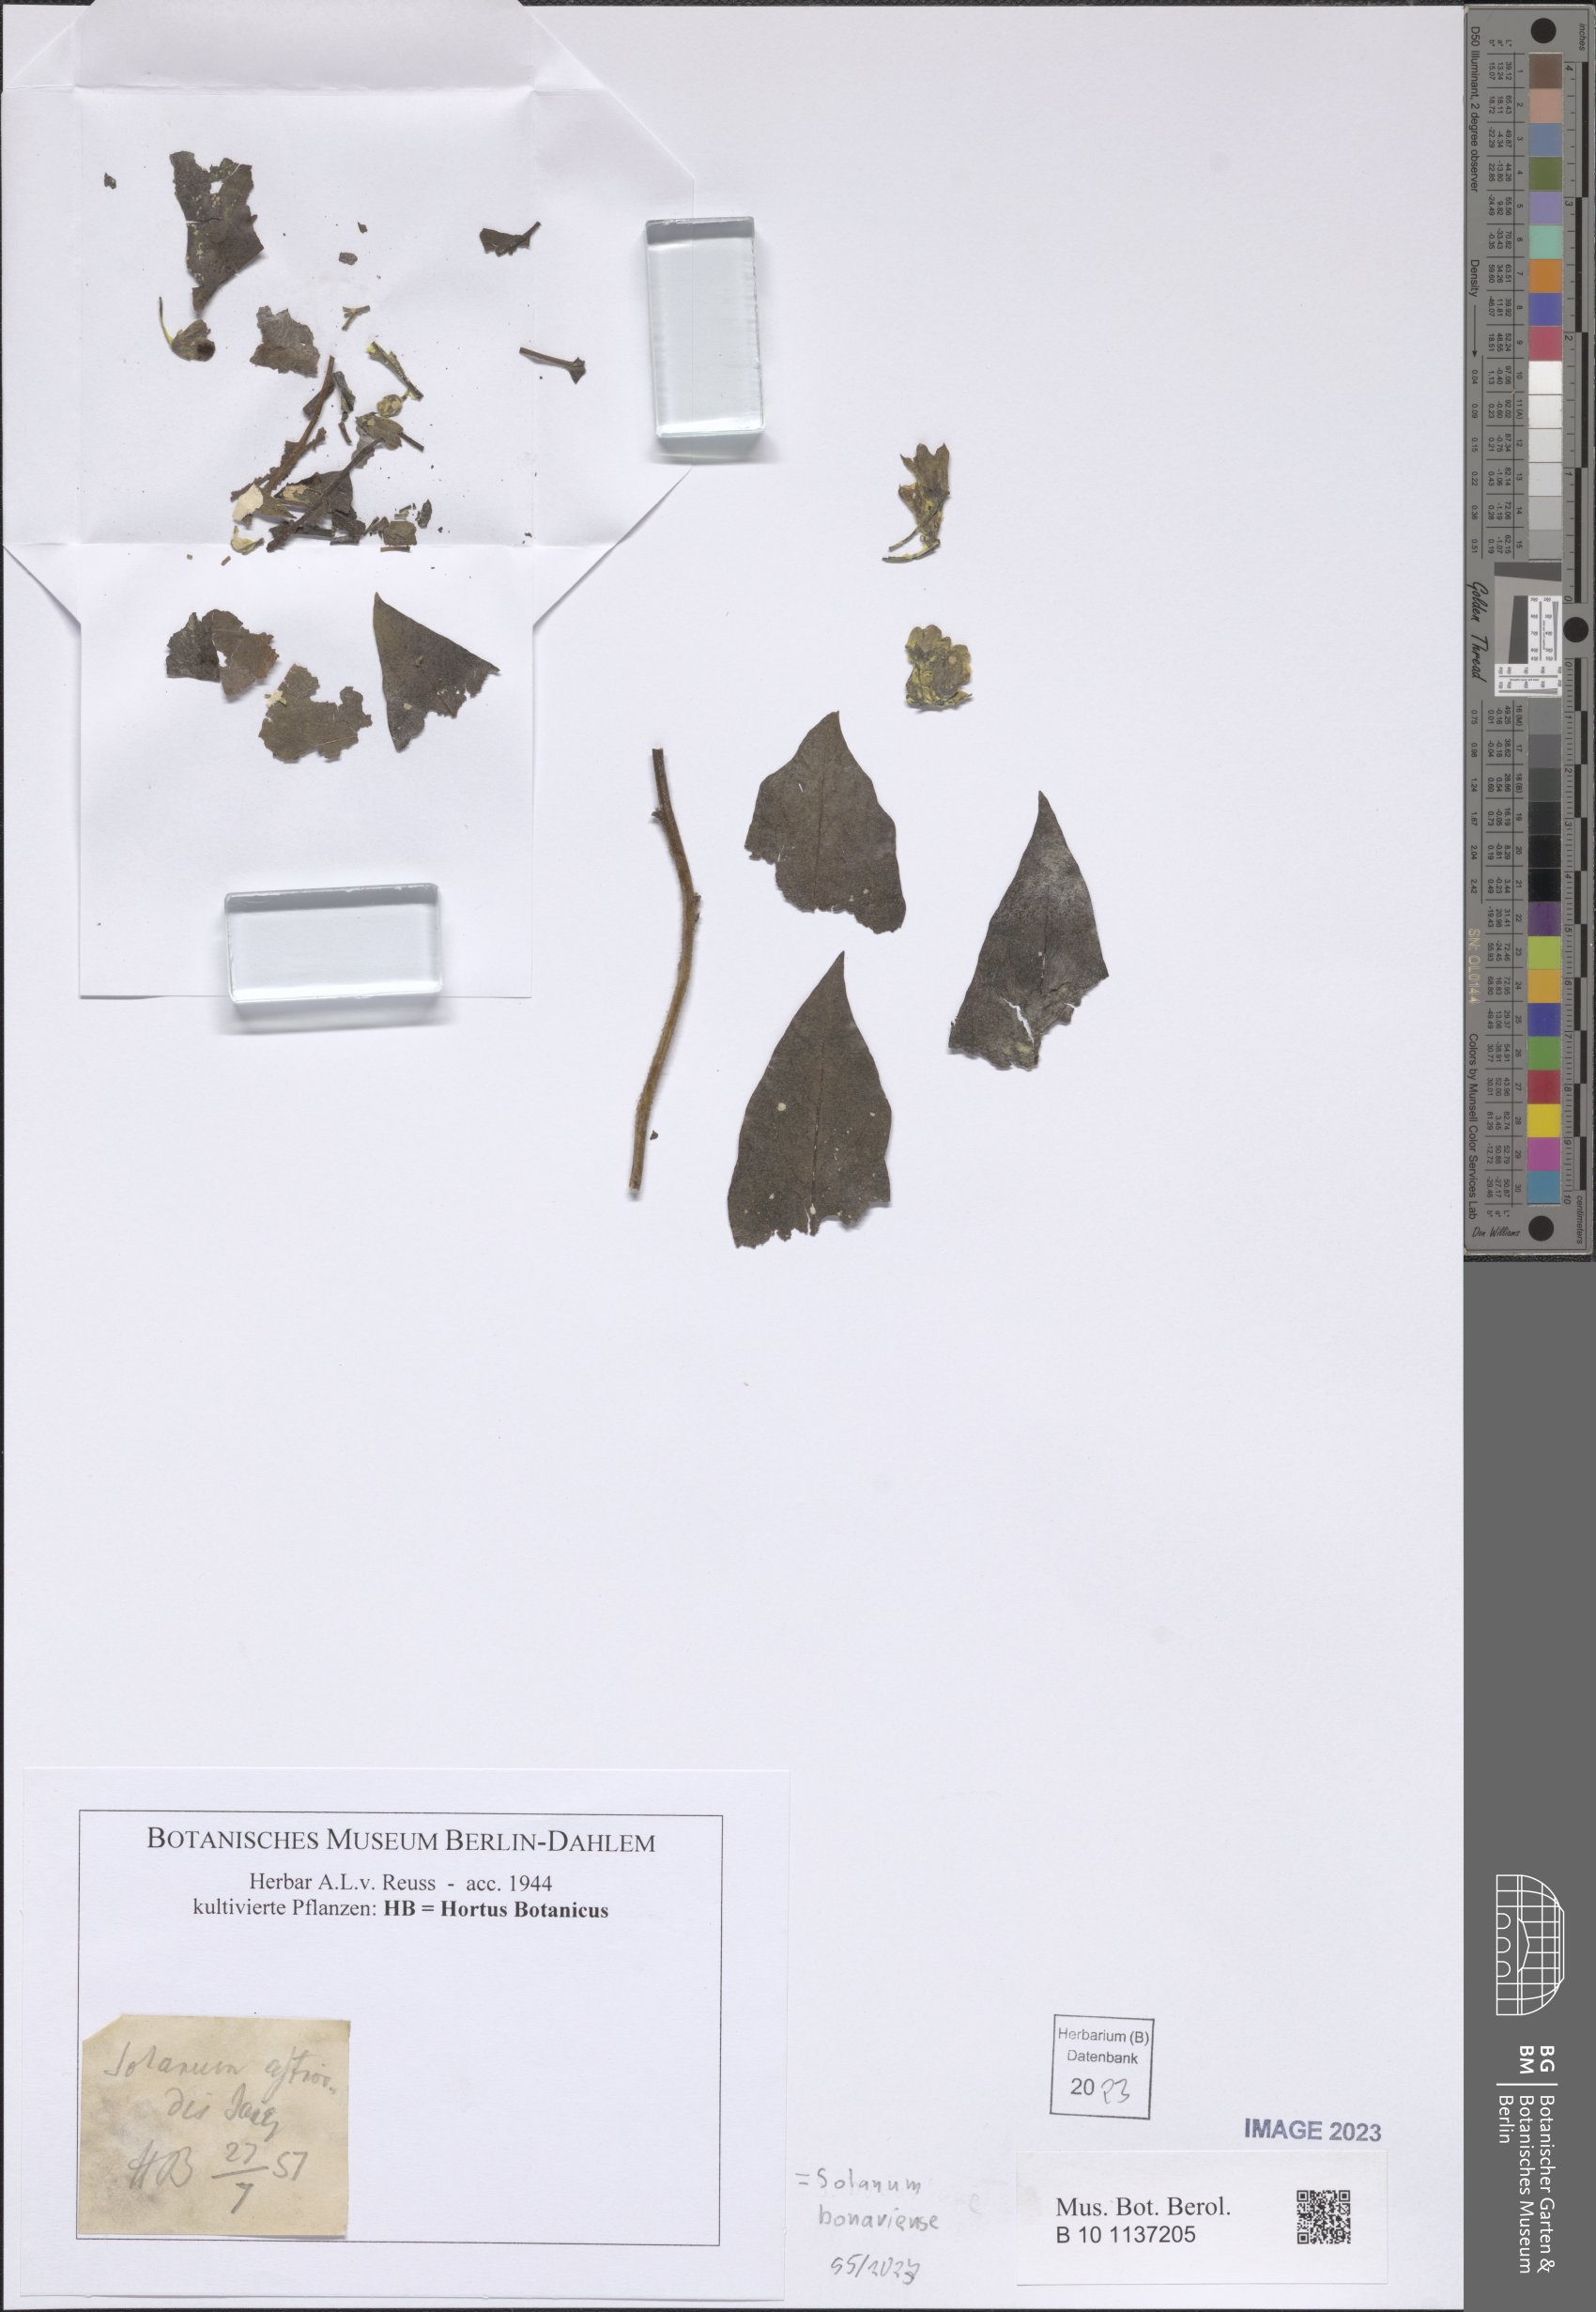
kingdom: Plantae
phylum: Tracheophyta
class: Magnoliopsida
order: Solanales
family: Solanaceae
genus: Solanum
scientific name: Solanum bonariense
